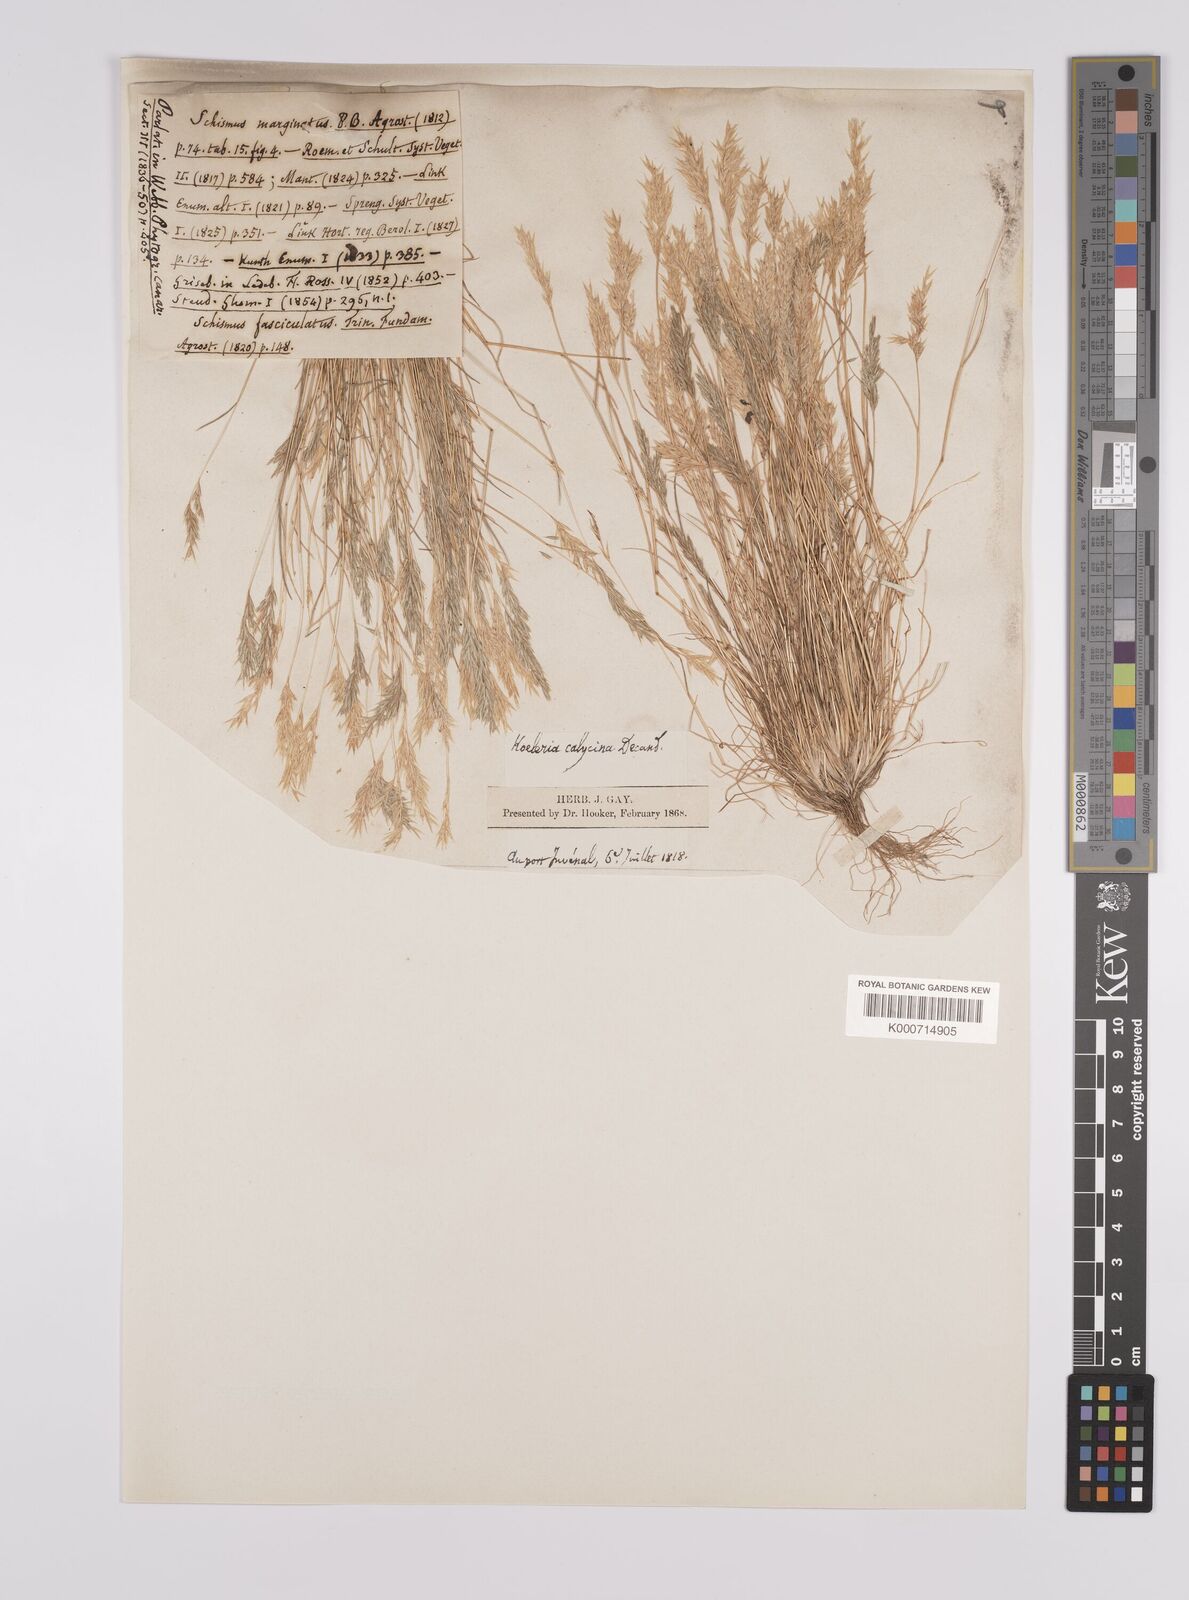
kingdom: Plantae
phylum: Tracheophyta
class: Liliopsida
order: Poales
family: Poaceae
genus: Schismus
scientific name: Schismus barbatus
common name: Kelch-grass
